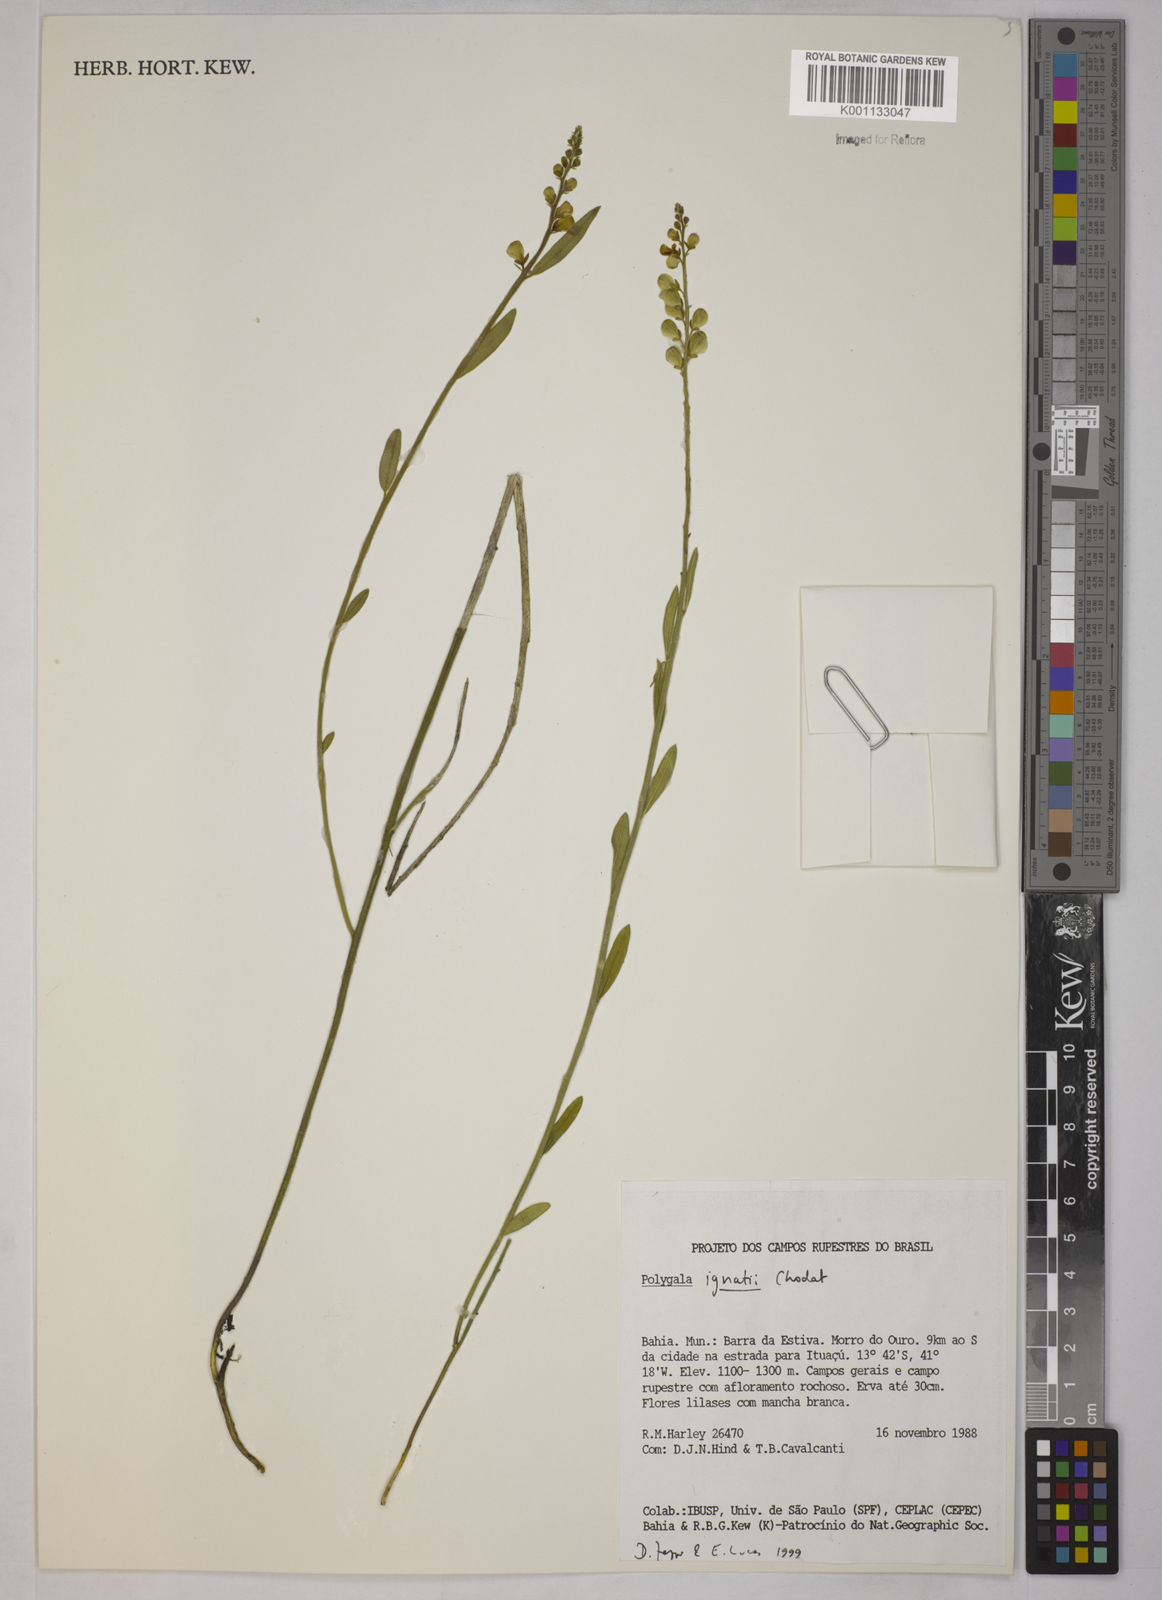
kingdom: Plantae
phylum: Tracheophyta
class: Magnoliopsida
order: Fabales
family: Polygalaceae
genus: Asemeia
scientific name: Asemeia hebeclada
